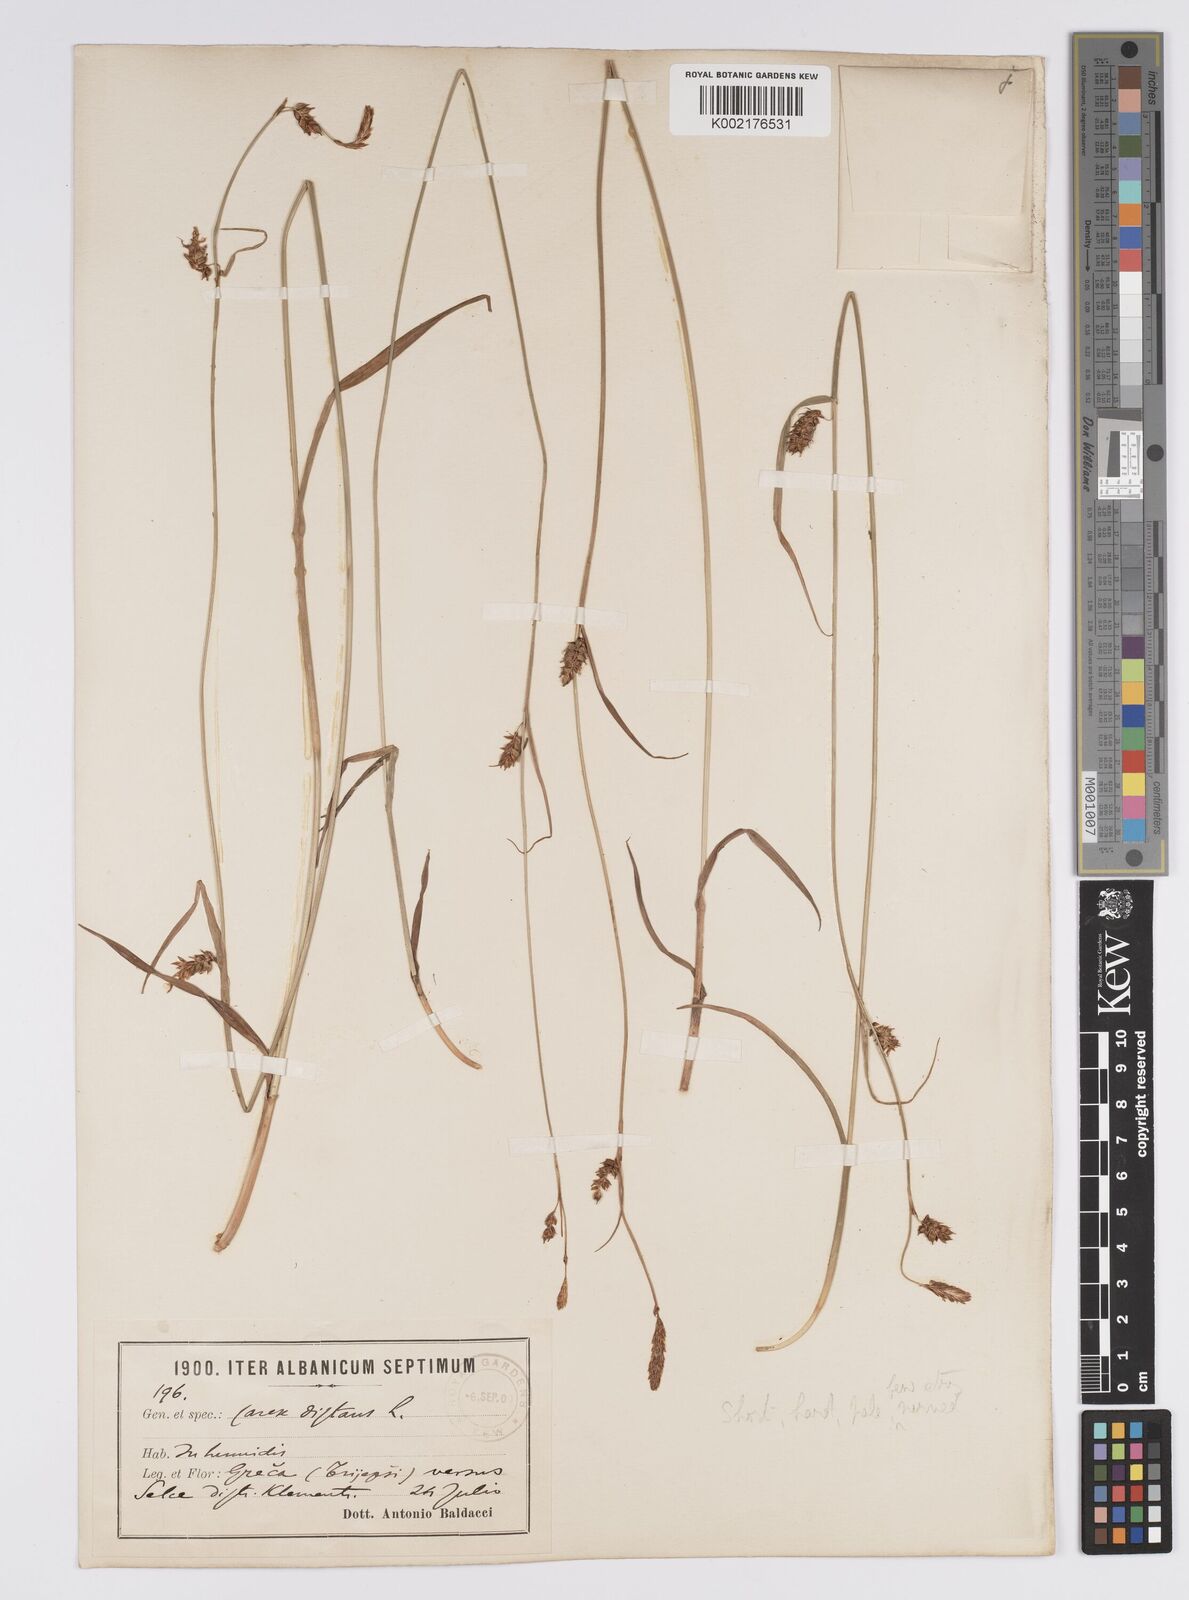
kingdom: Plantae
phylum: Tracheophyta
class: Liliopsida
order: Poales
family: Cyperaceae
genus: Carex
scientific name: Carex distans
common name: Distant sedge
